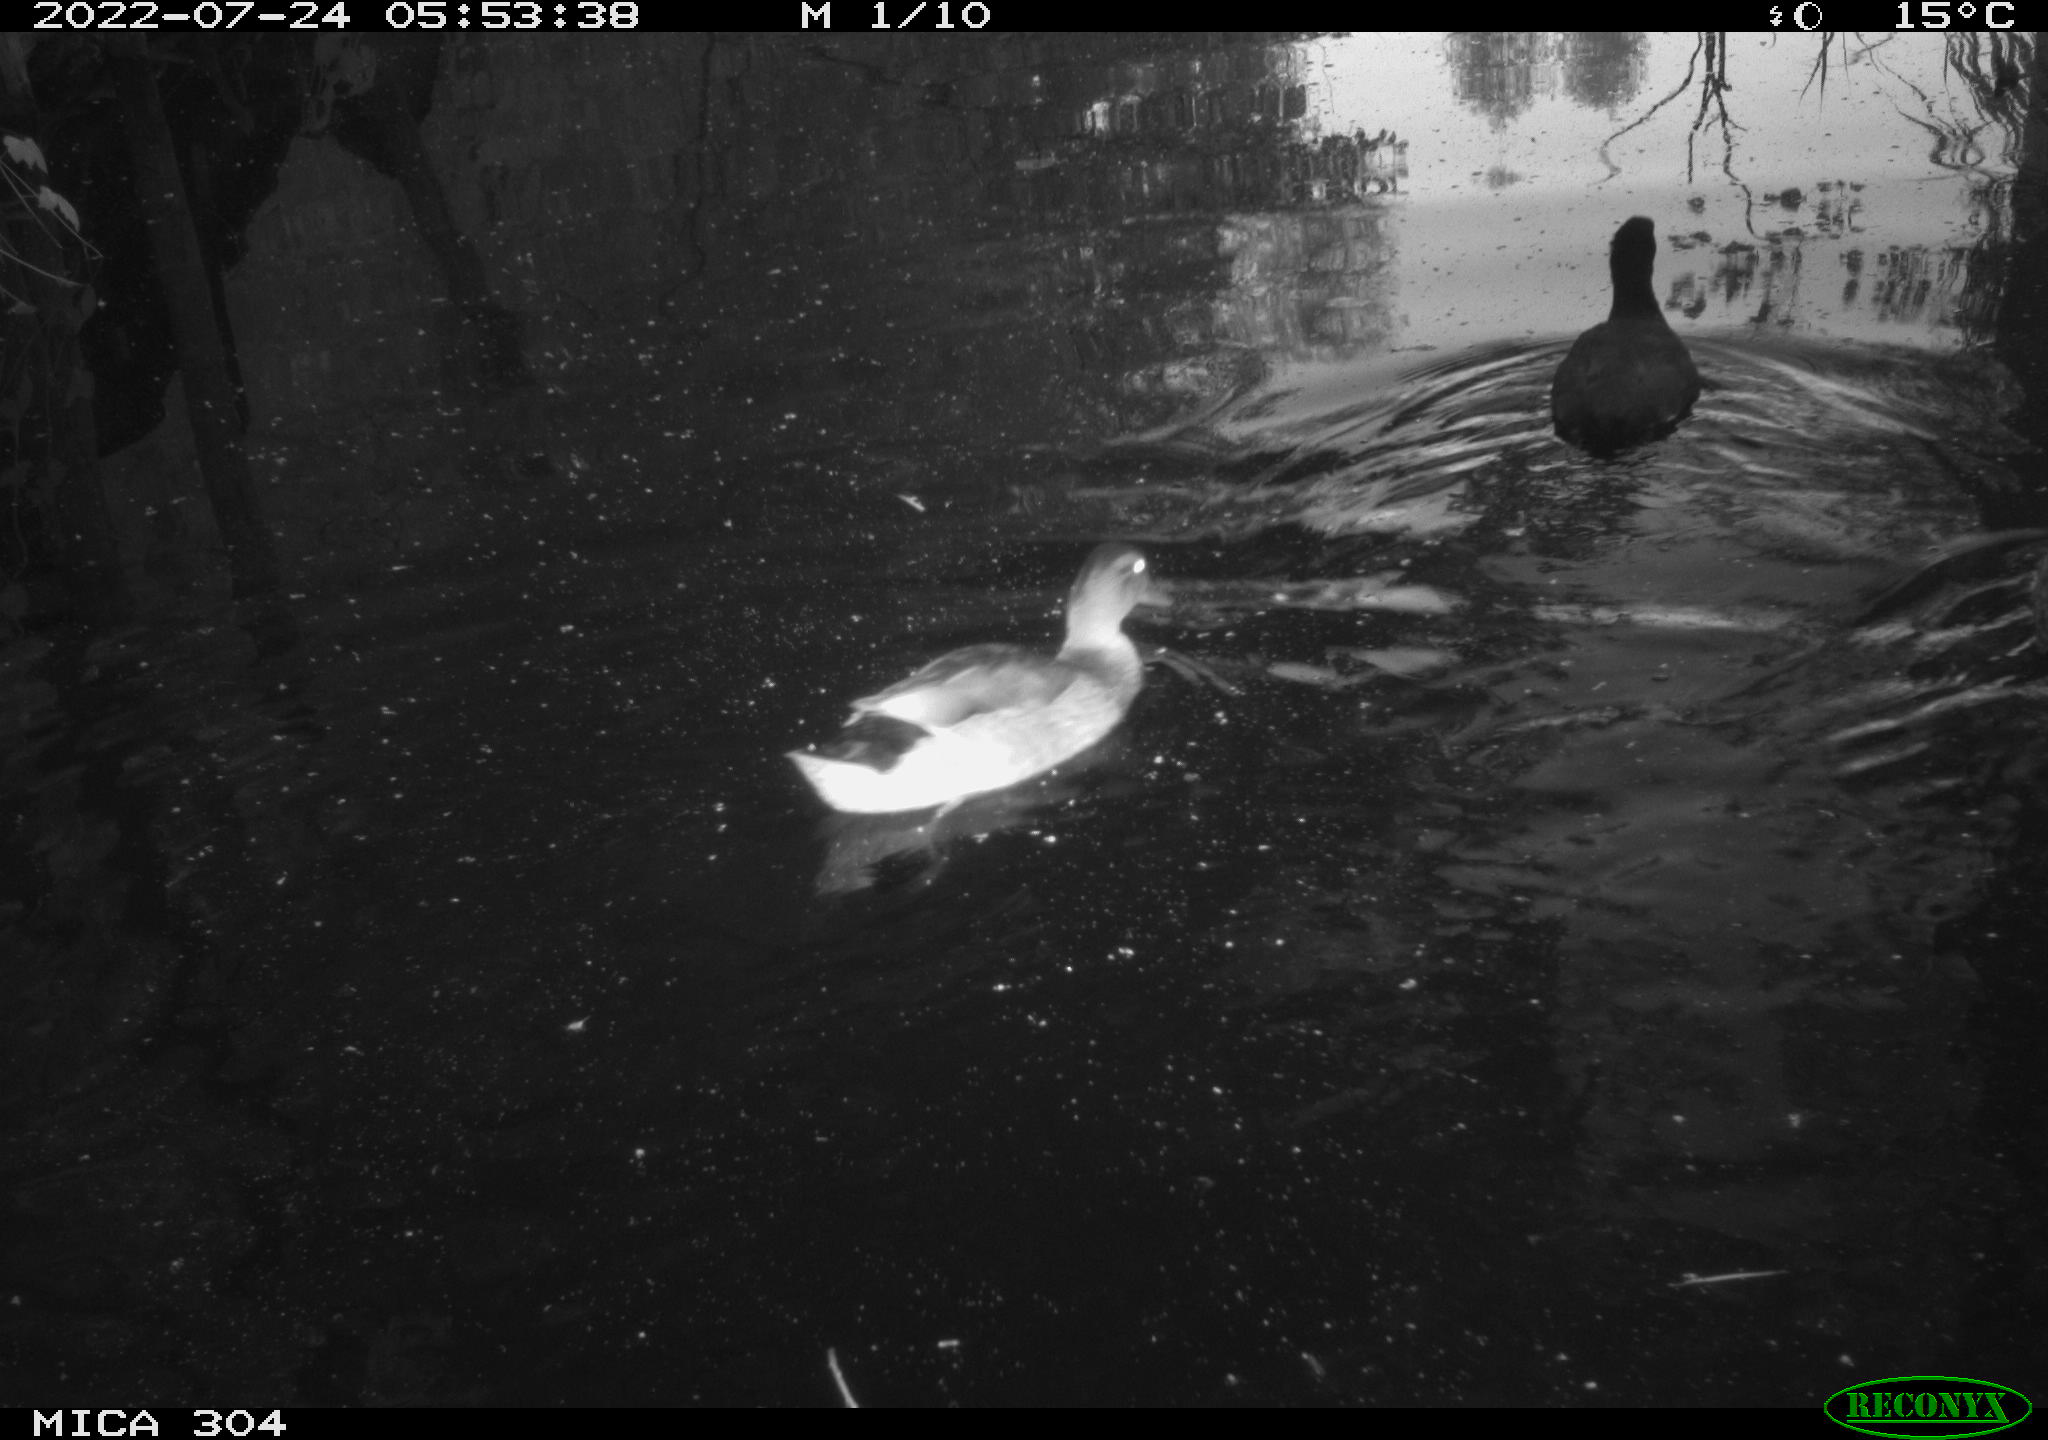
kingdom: Animalia
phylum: Chordata
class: Aves
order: Gruiformes
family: Rallidae
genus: Fulica
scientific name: Fulica atra
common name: Eurasian coot
